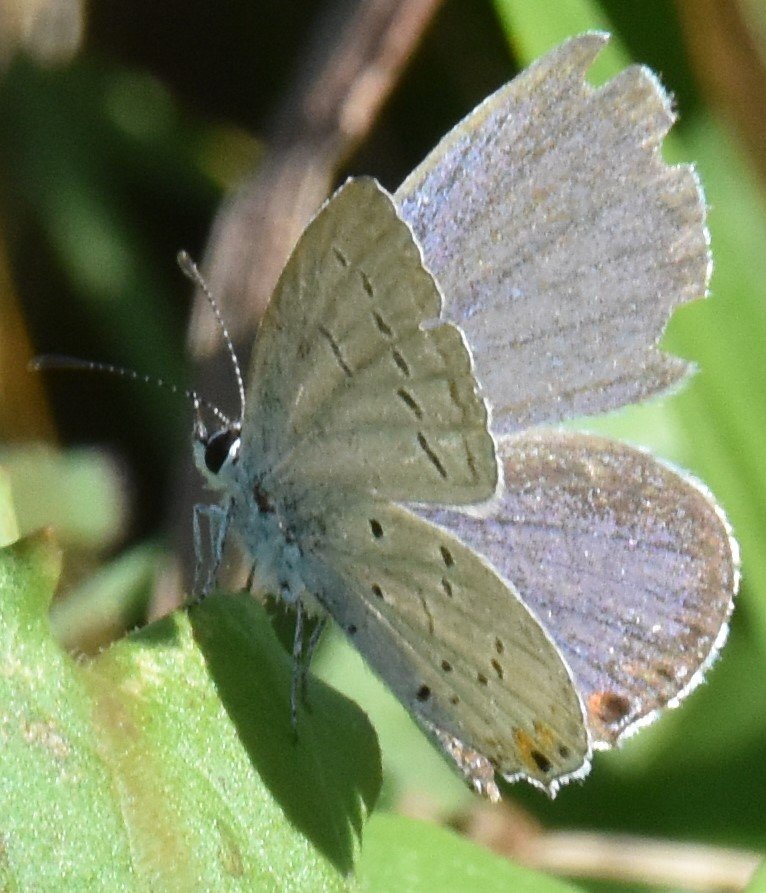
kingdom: Animalia
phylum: Arthropoda
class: Insecta
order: Lepidoptera
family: Lycaenidae
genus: Elkalyce
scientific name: Elkalyce comyntas
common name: Eastern Tailed-Blue
